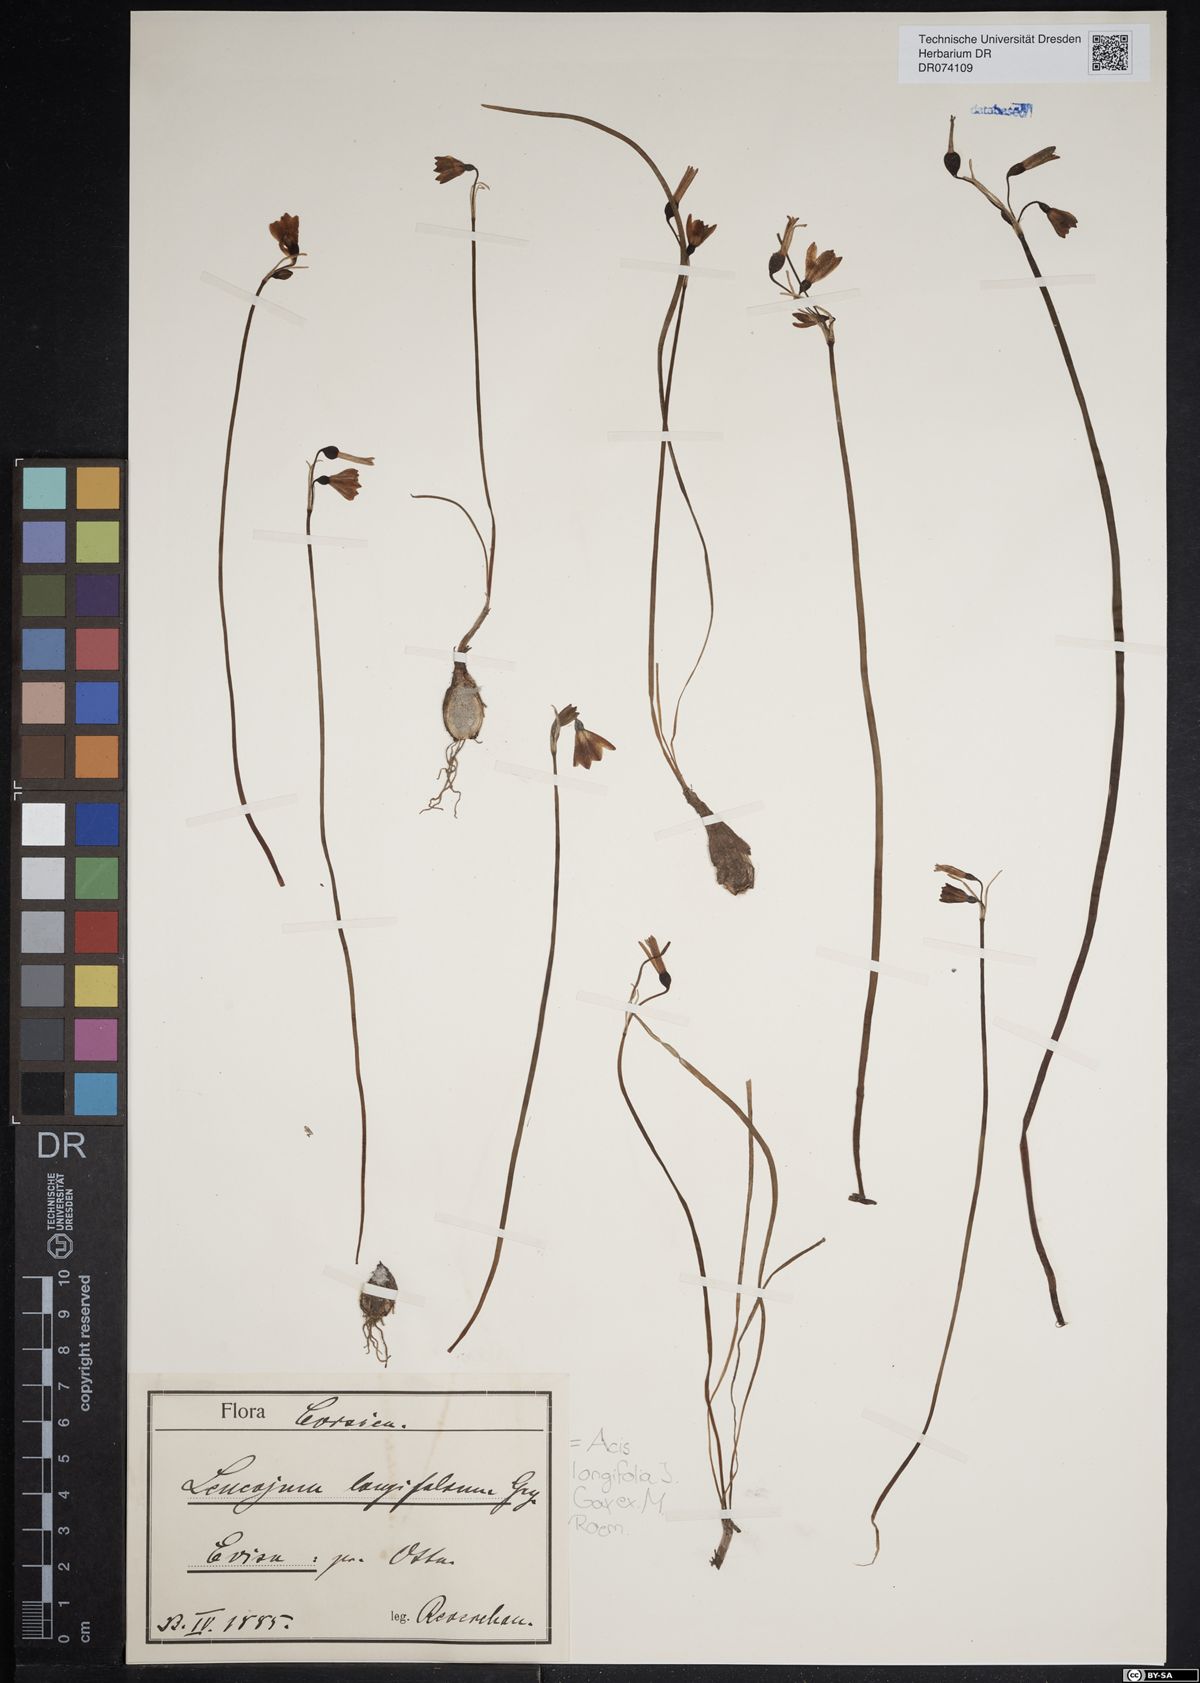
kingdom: Plantae
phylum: Tracheophyta
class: Liliopsida
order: Asparagales
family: Amaryllidaceae
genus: Acis
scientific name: Acis longifolia
